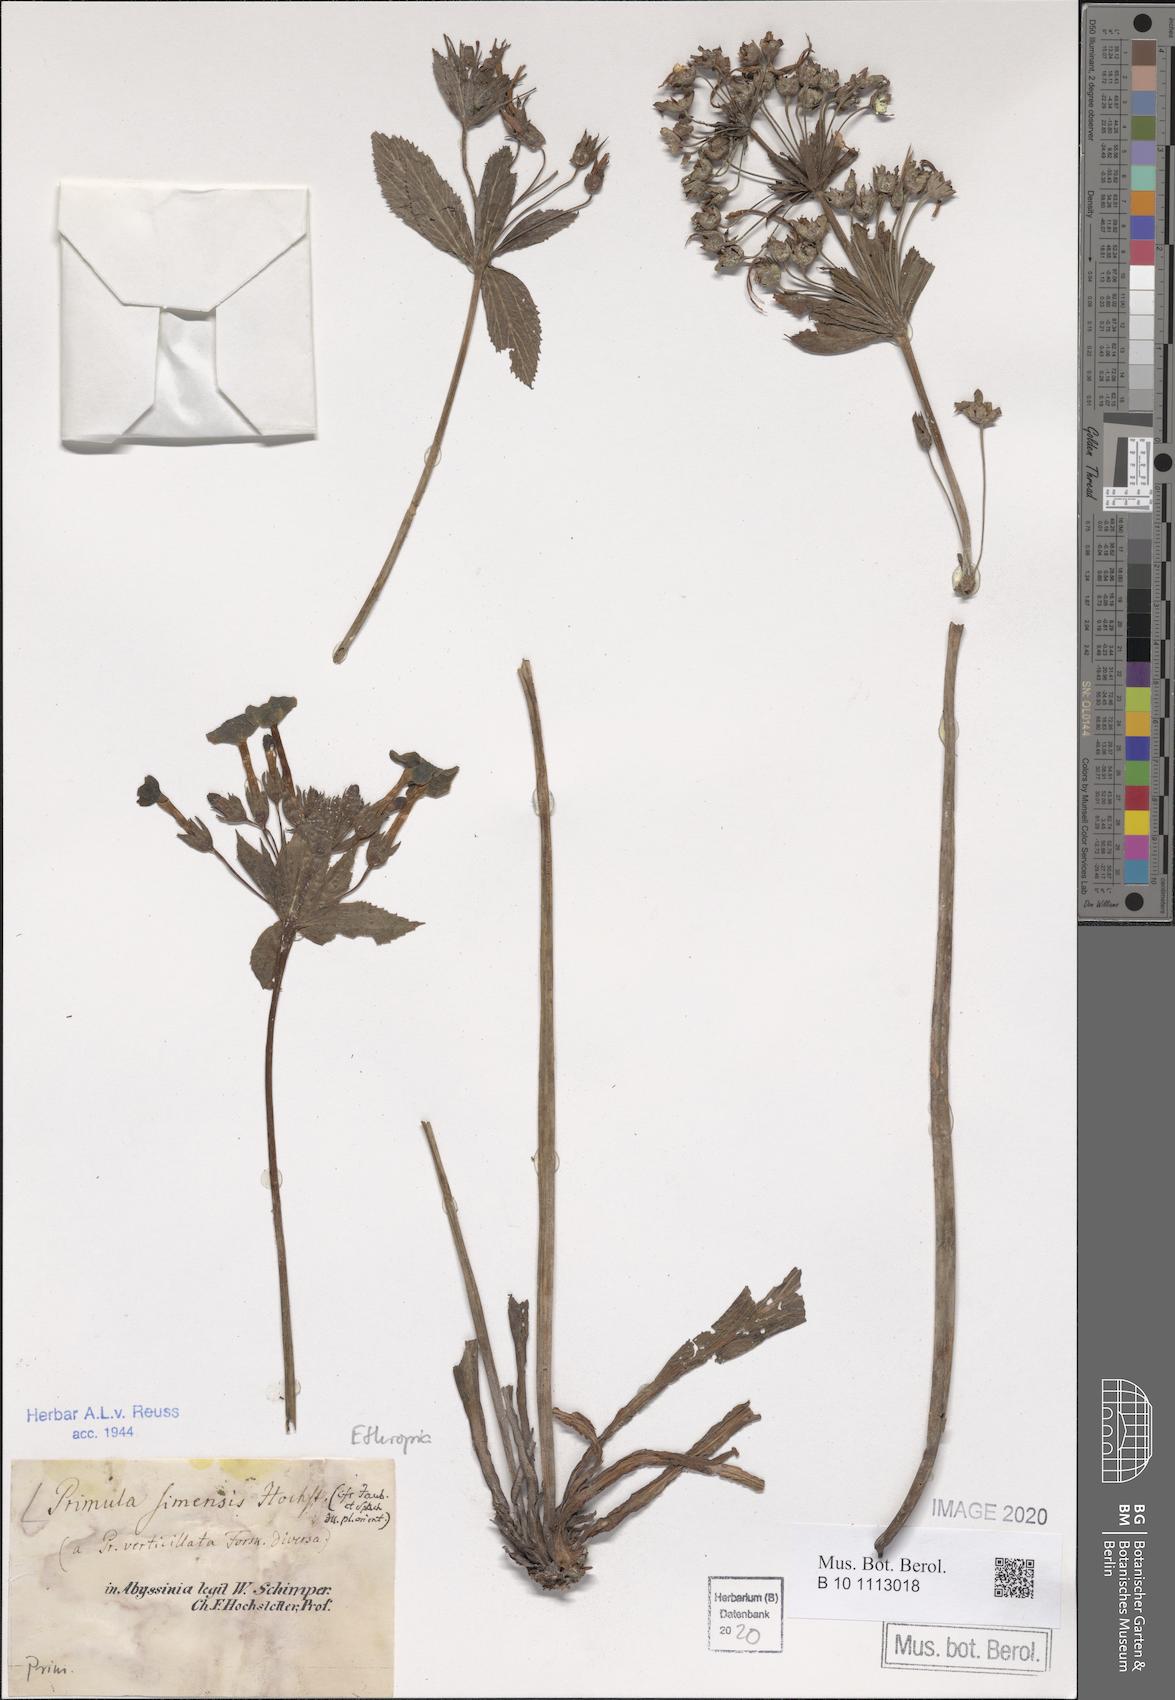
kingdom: Plantae
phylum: Tracheophyta
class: Magnoliopsida
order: Ericales
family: Primulaceae
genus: Evotrochis
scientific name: Evotrochis simensis
